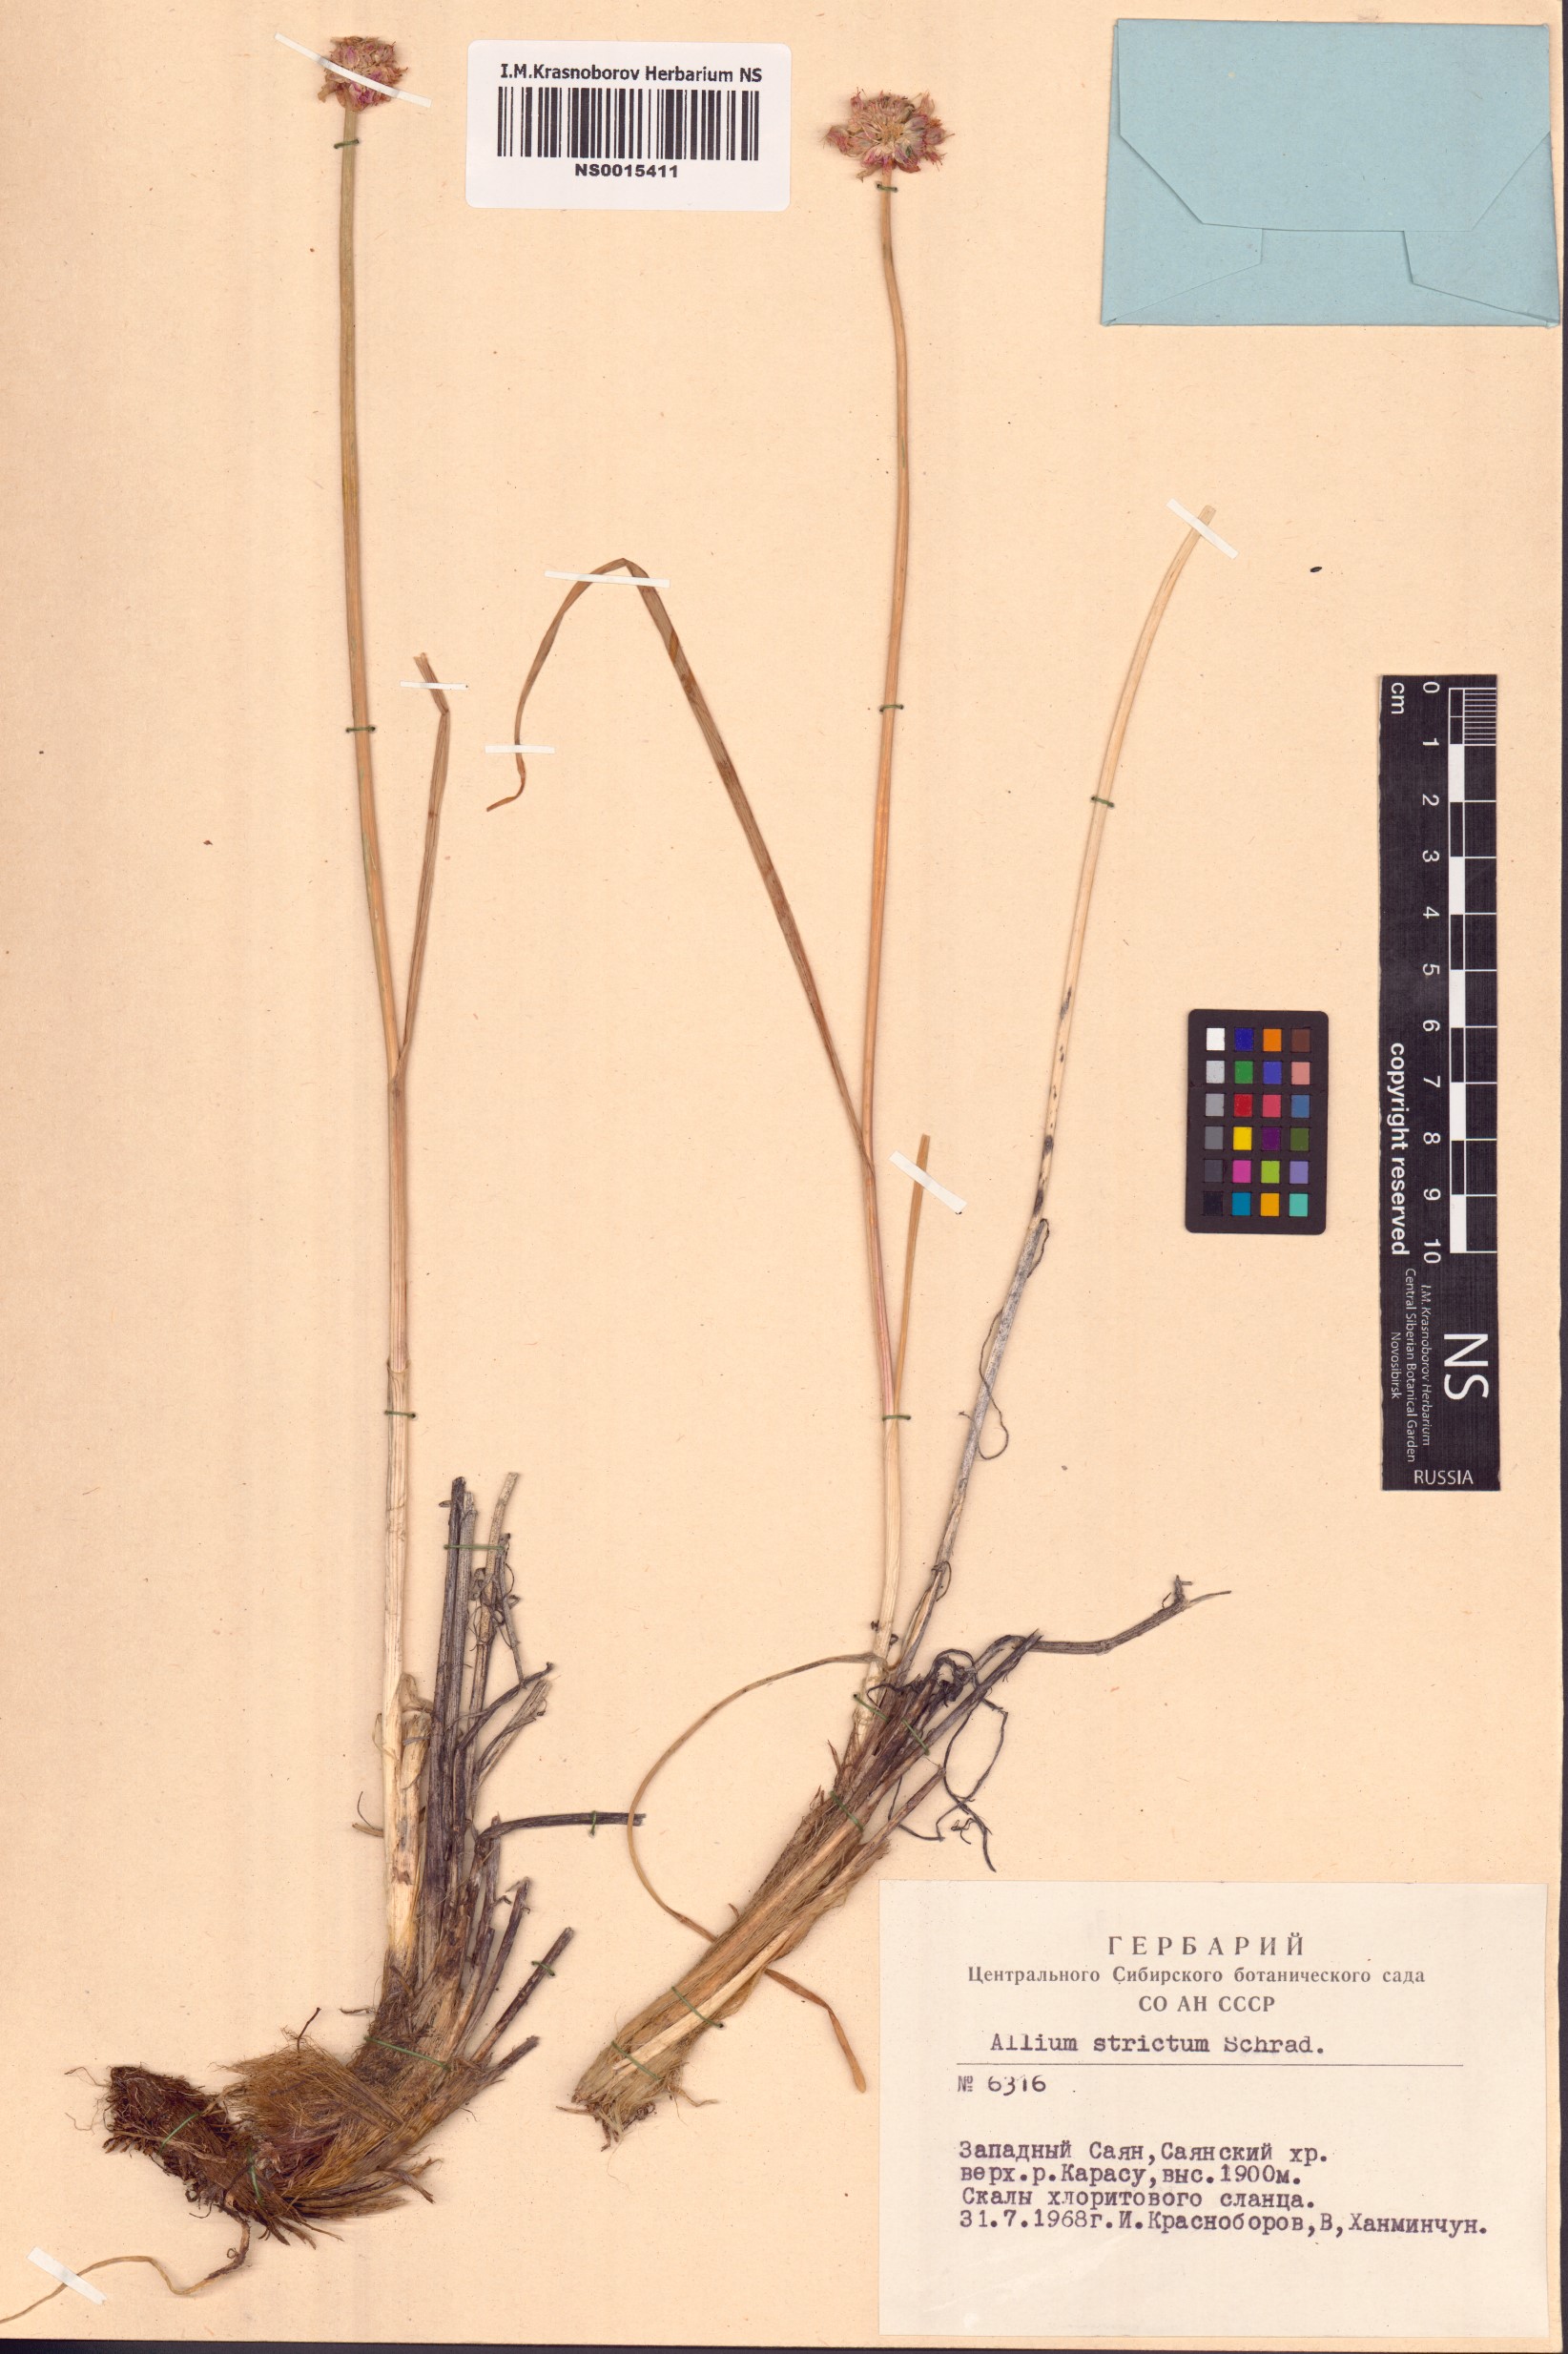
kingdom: Plantae
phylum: Tracheophyta
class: Liliopsida
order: Asparagales
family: Amaryllidaceae
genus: Allium
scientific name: Allium strictum
